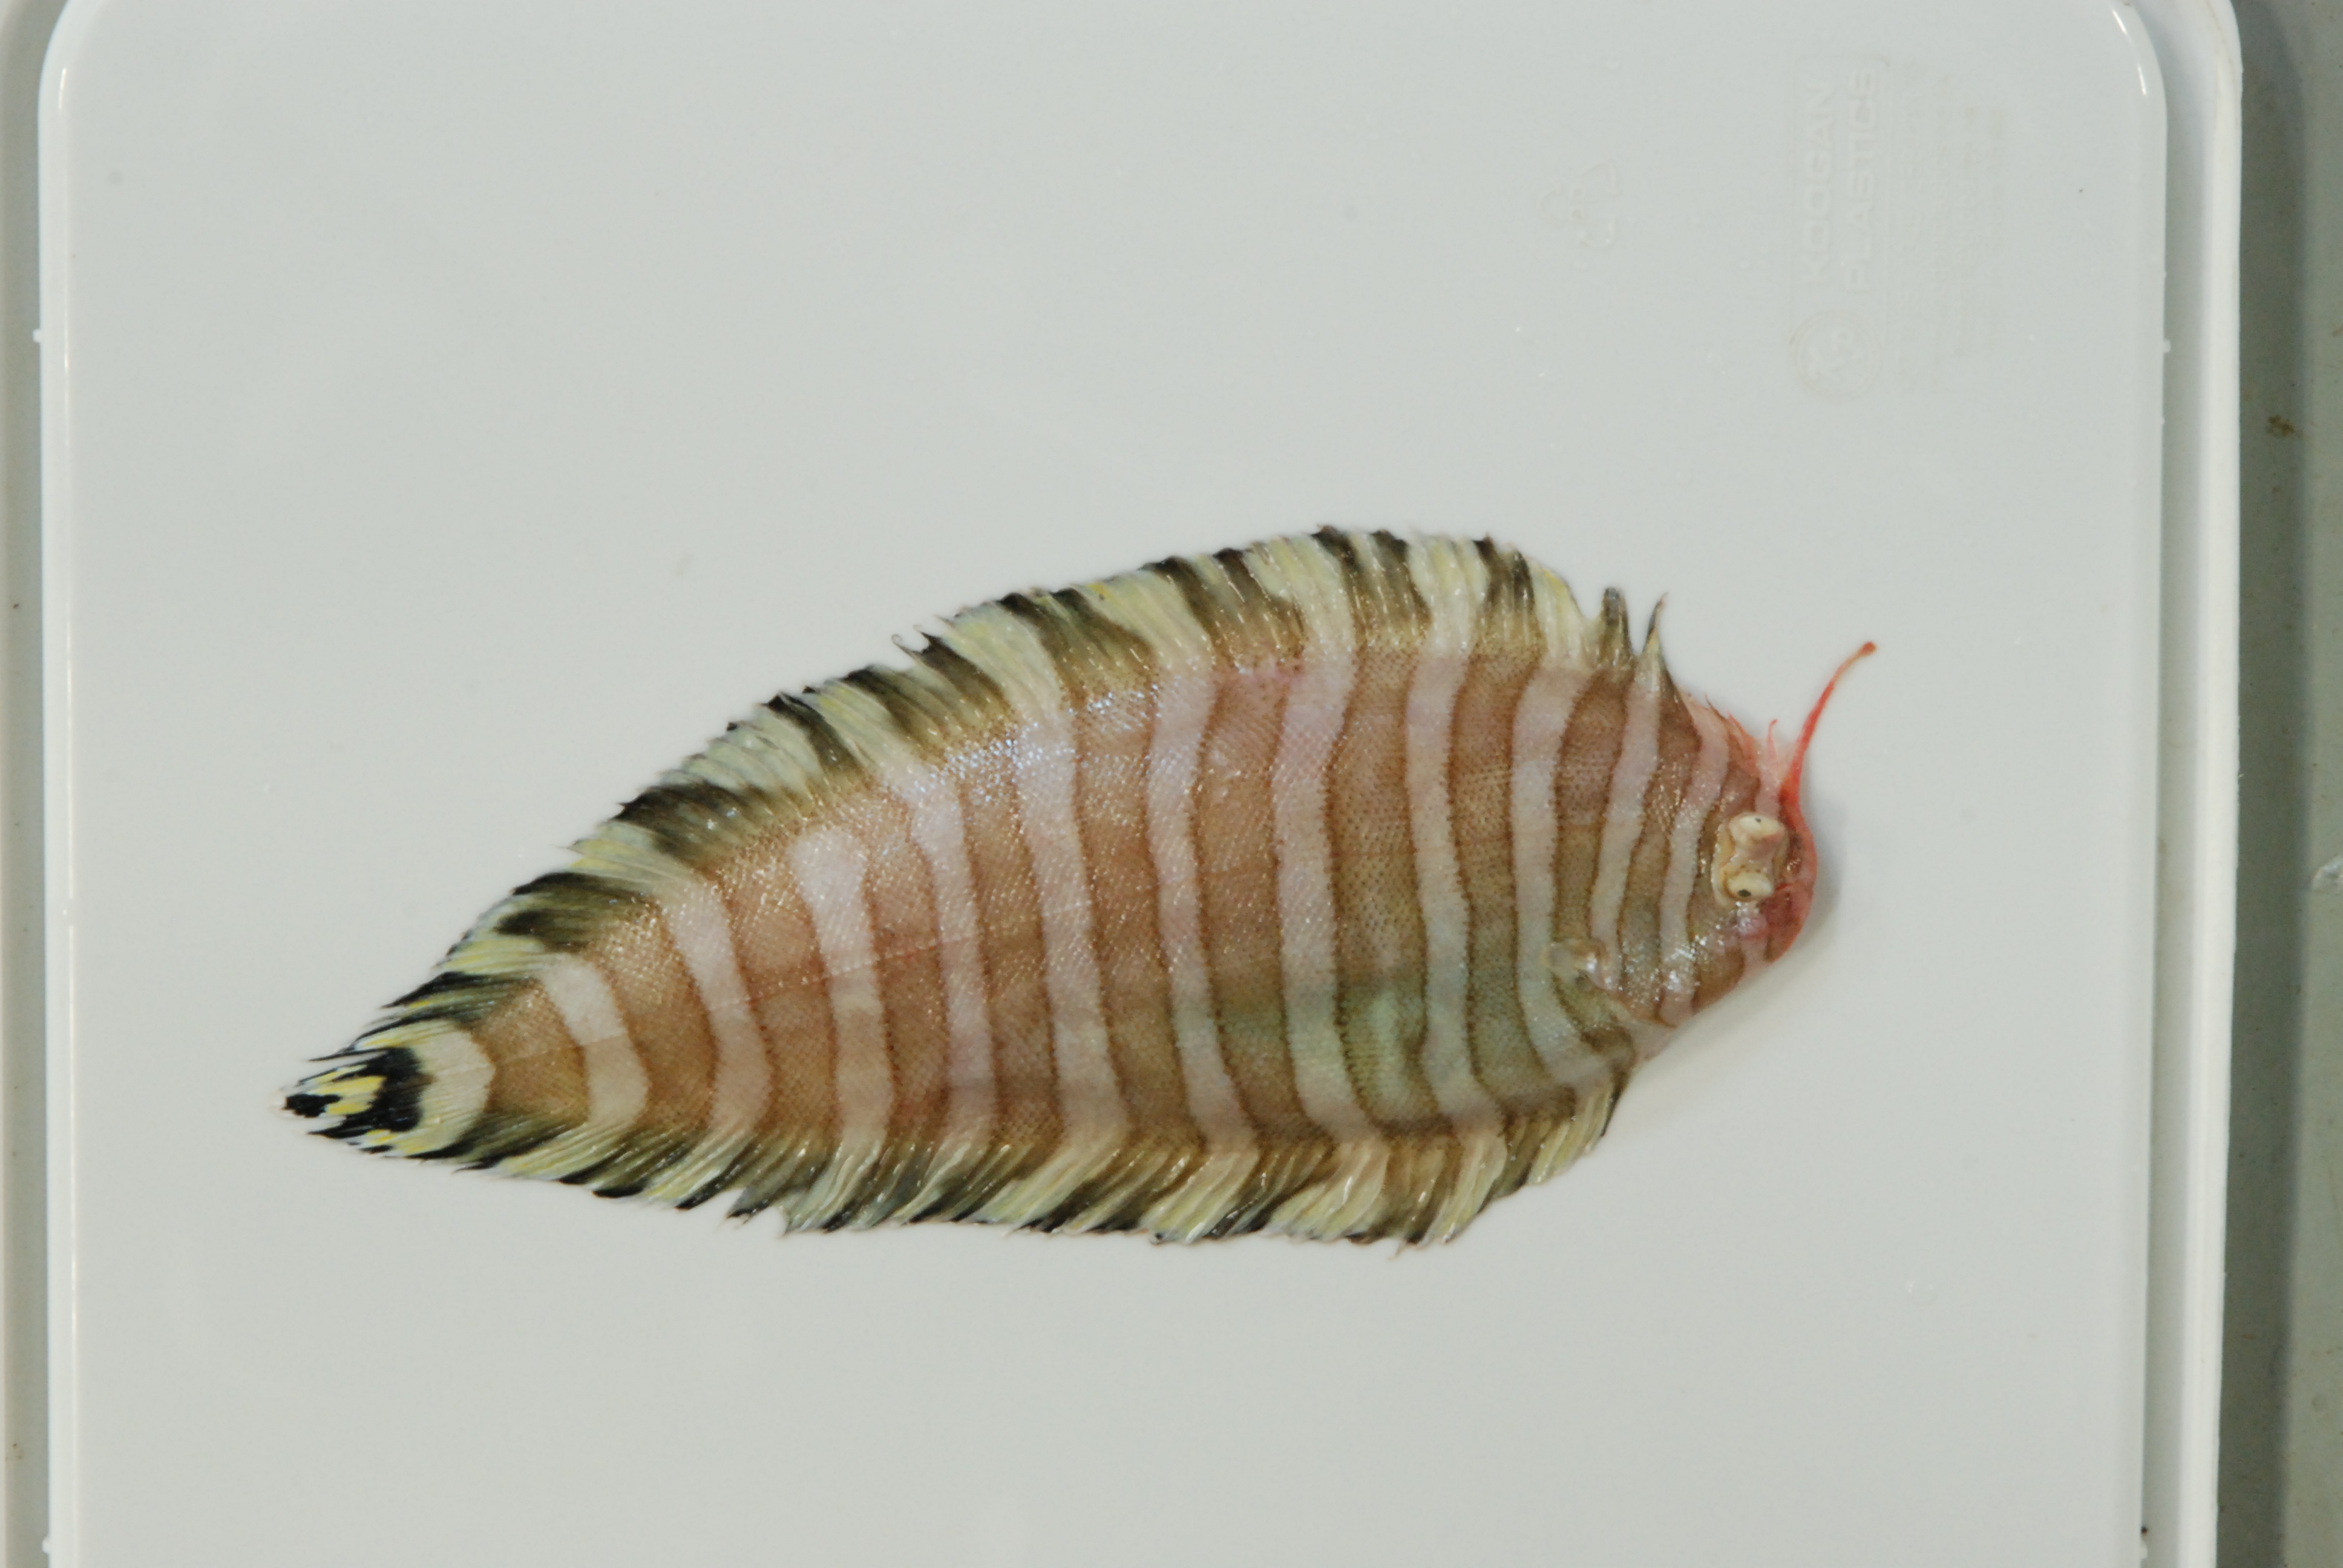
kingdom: Animalia
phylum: Chordata
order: Pleuronectiformes
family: Soleidae
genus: Aesopia
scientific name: Aesopia cornuta
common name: Unicorn sole
